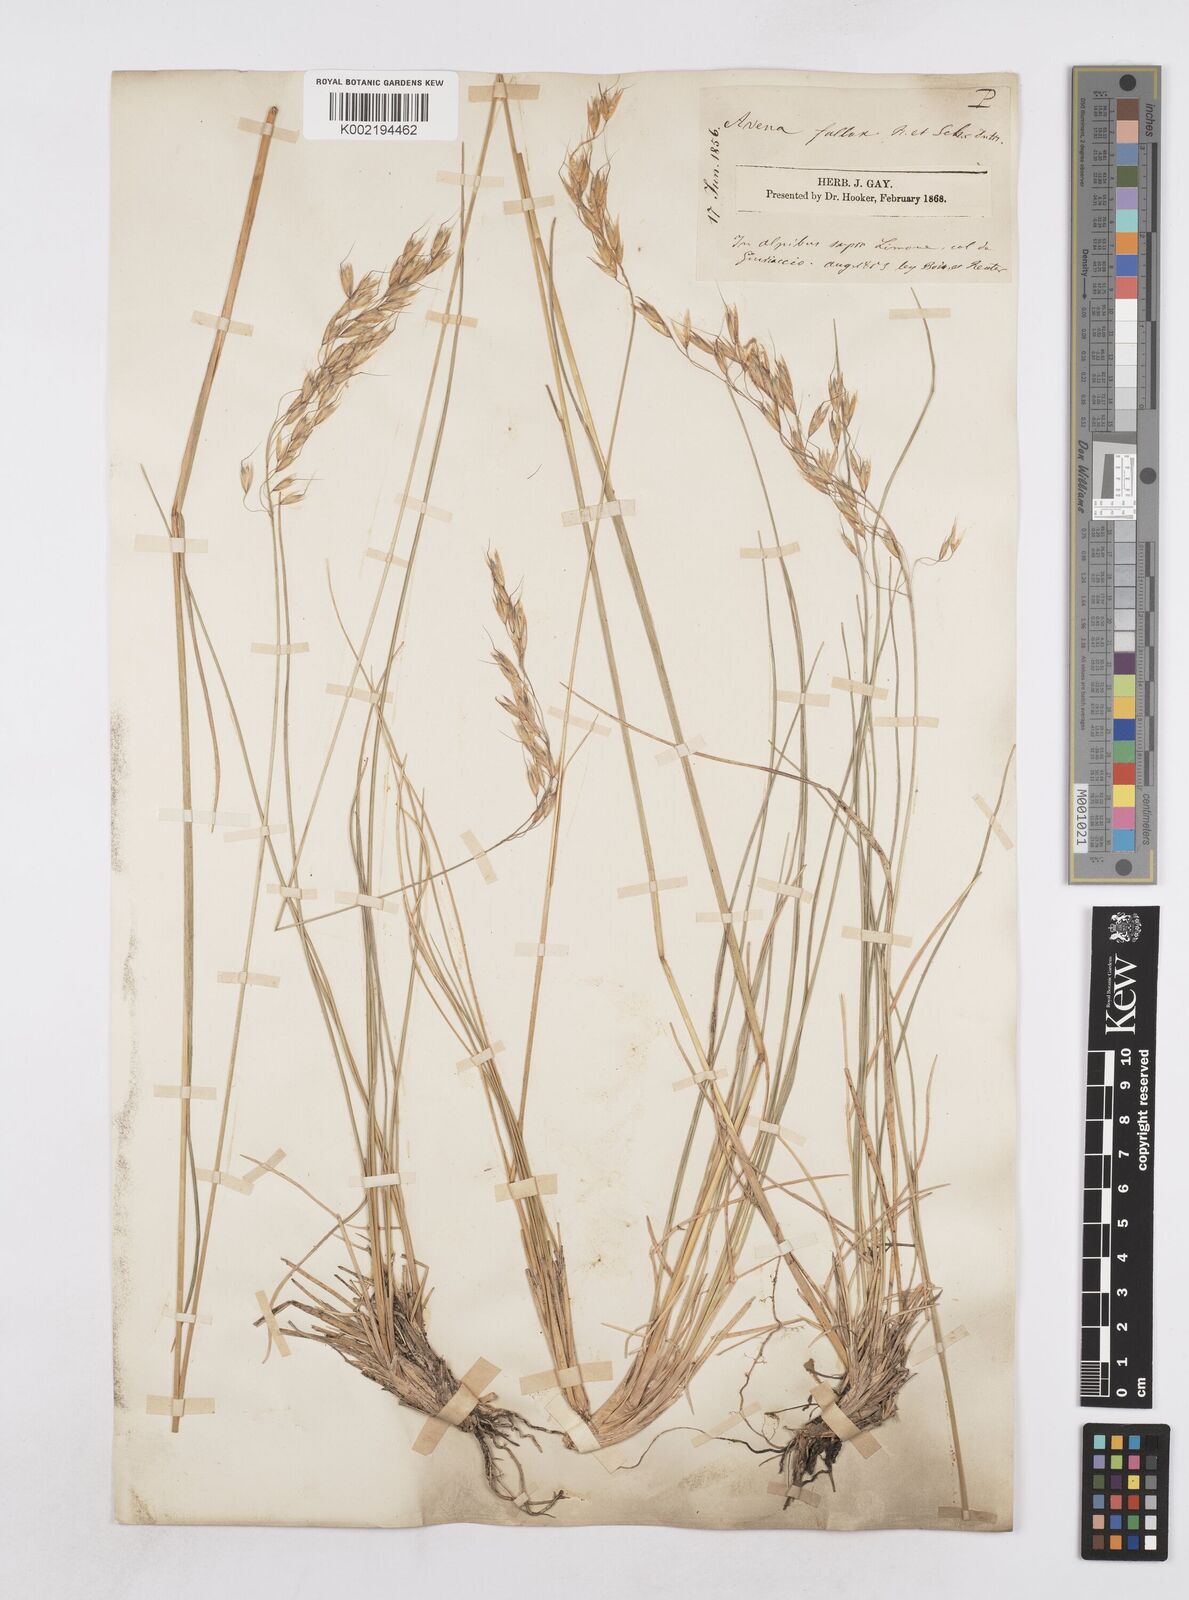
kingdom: Plantae
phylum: Tracheophyta
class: Liliopsida
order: Poales
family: Poaceae
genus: Helictotrichon
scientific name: Helictotrichon convolutum
